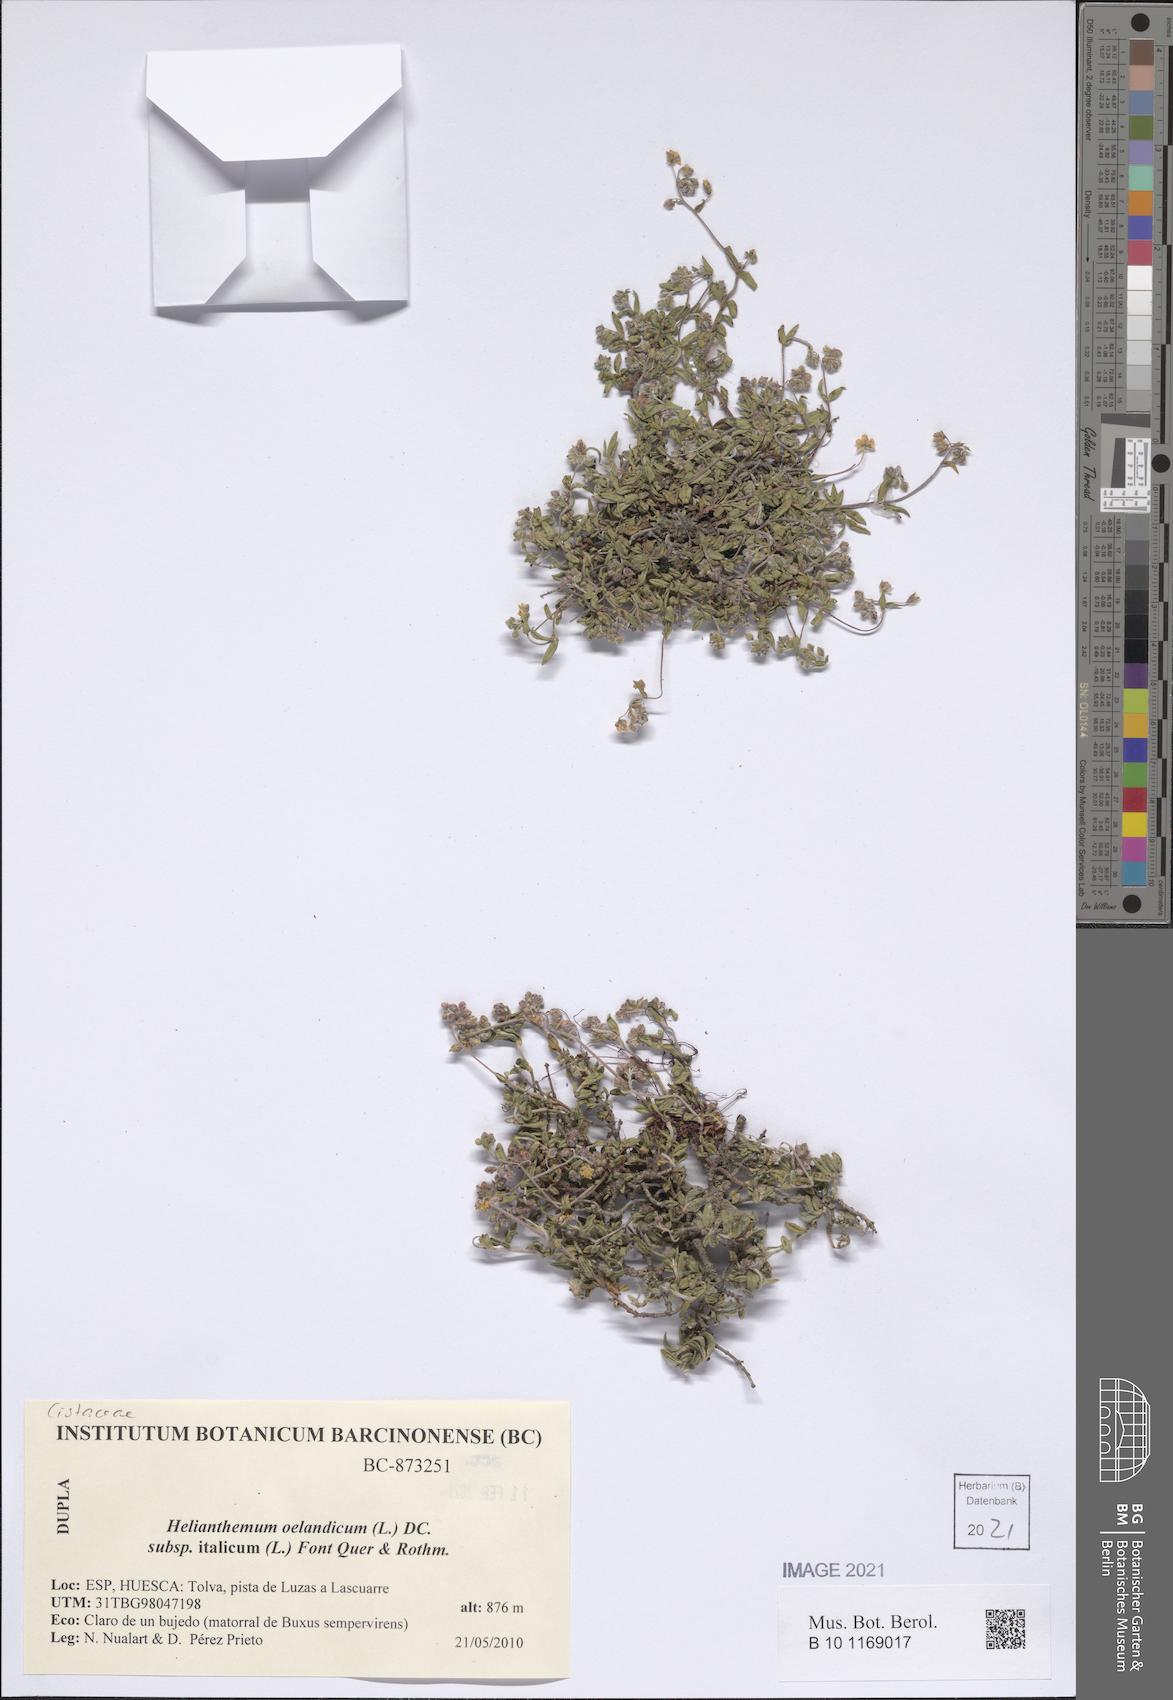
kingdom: Plantae
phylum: Tracheophyta
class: Magnoliopsida
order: Malvales
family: Cistaceae
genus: Helianthemum
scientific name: Helianthemum italicum
